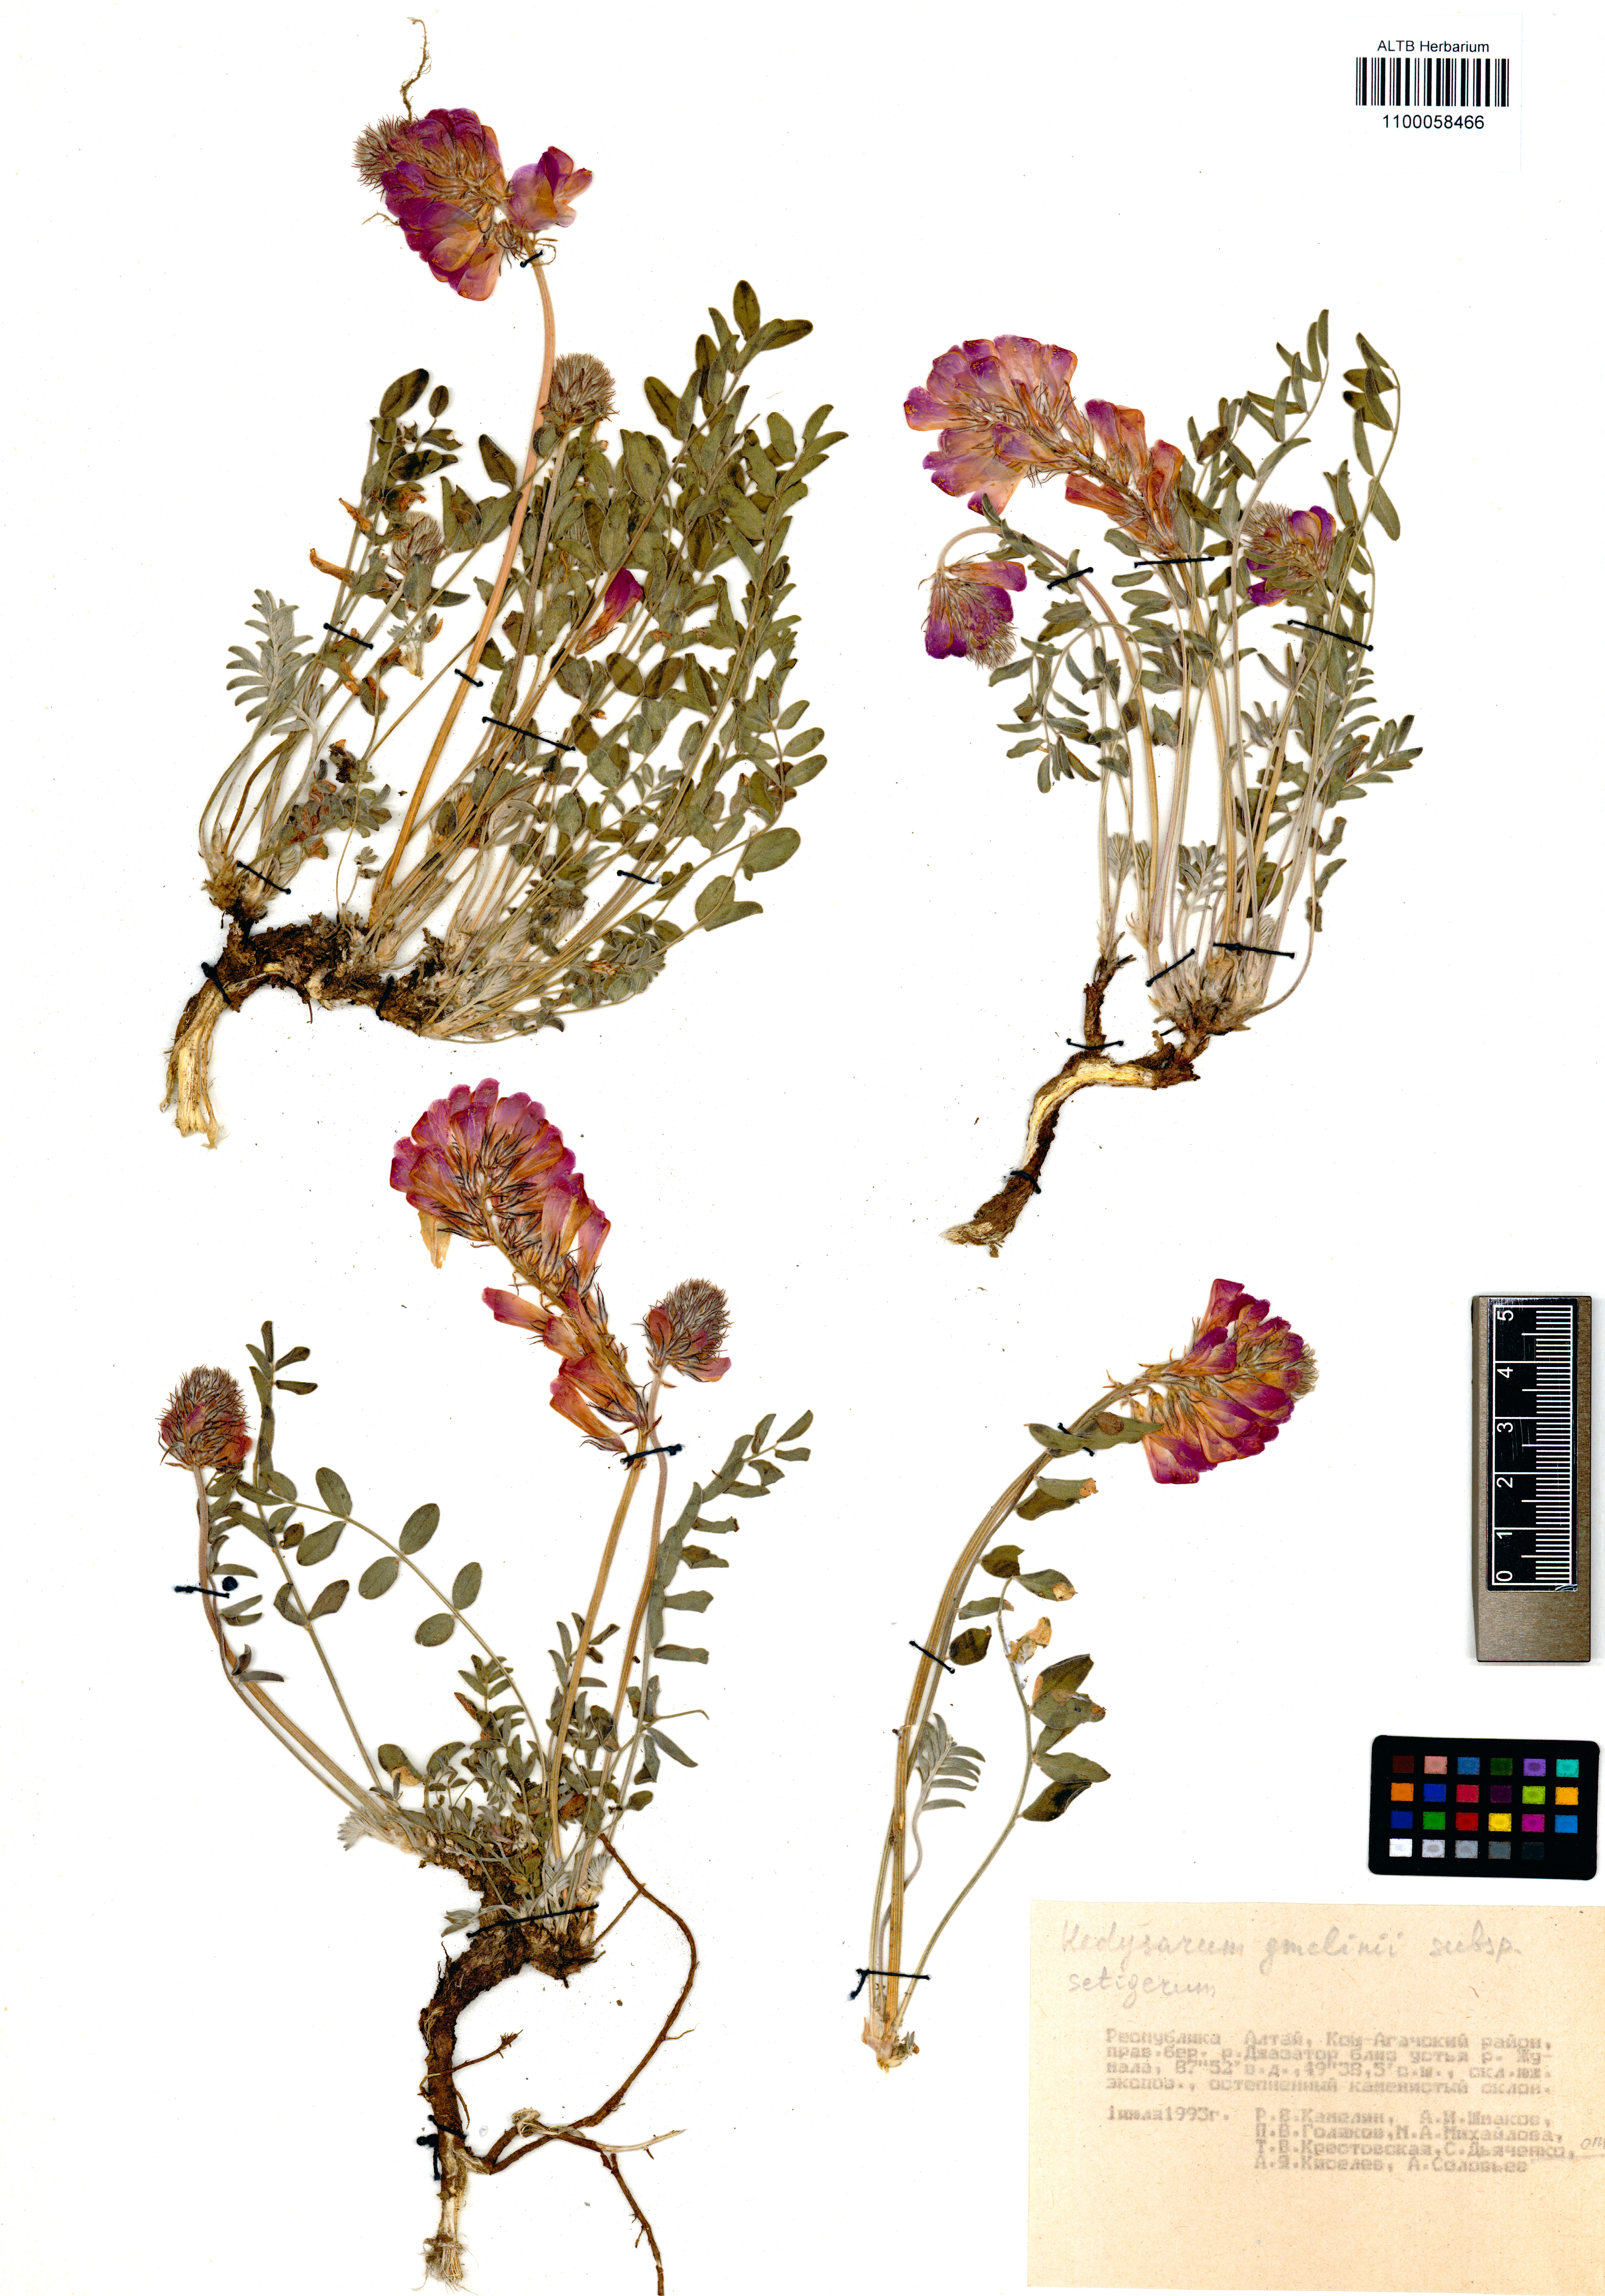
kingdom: Plantae
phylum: Tracheophyta
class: Magnoliopsida
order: Fabales
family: Fabaceae
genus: Hedysarum
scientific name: Hedysarum setigerum
